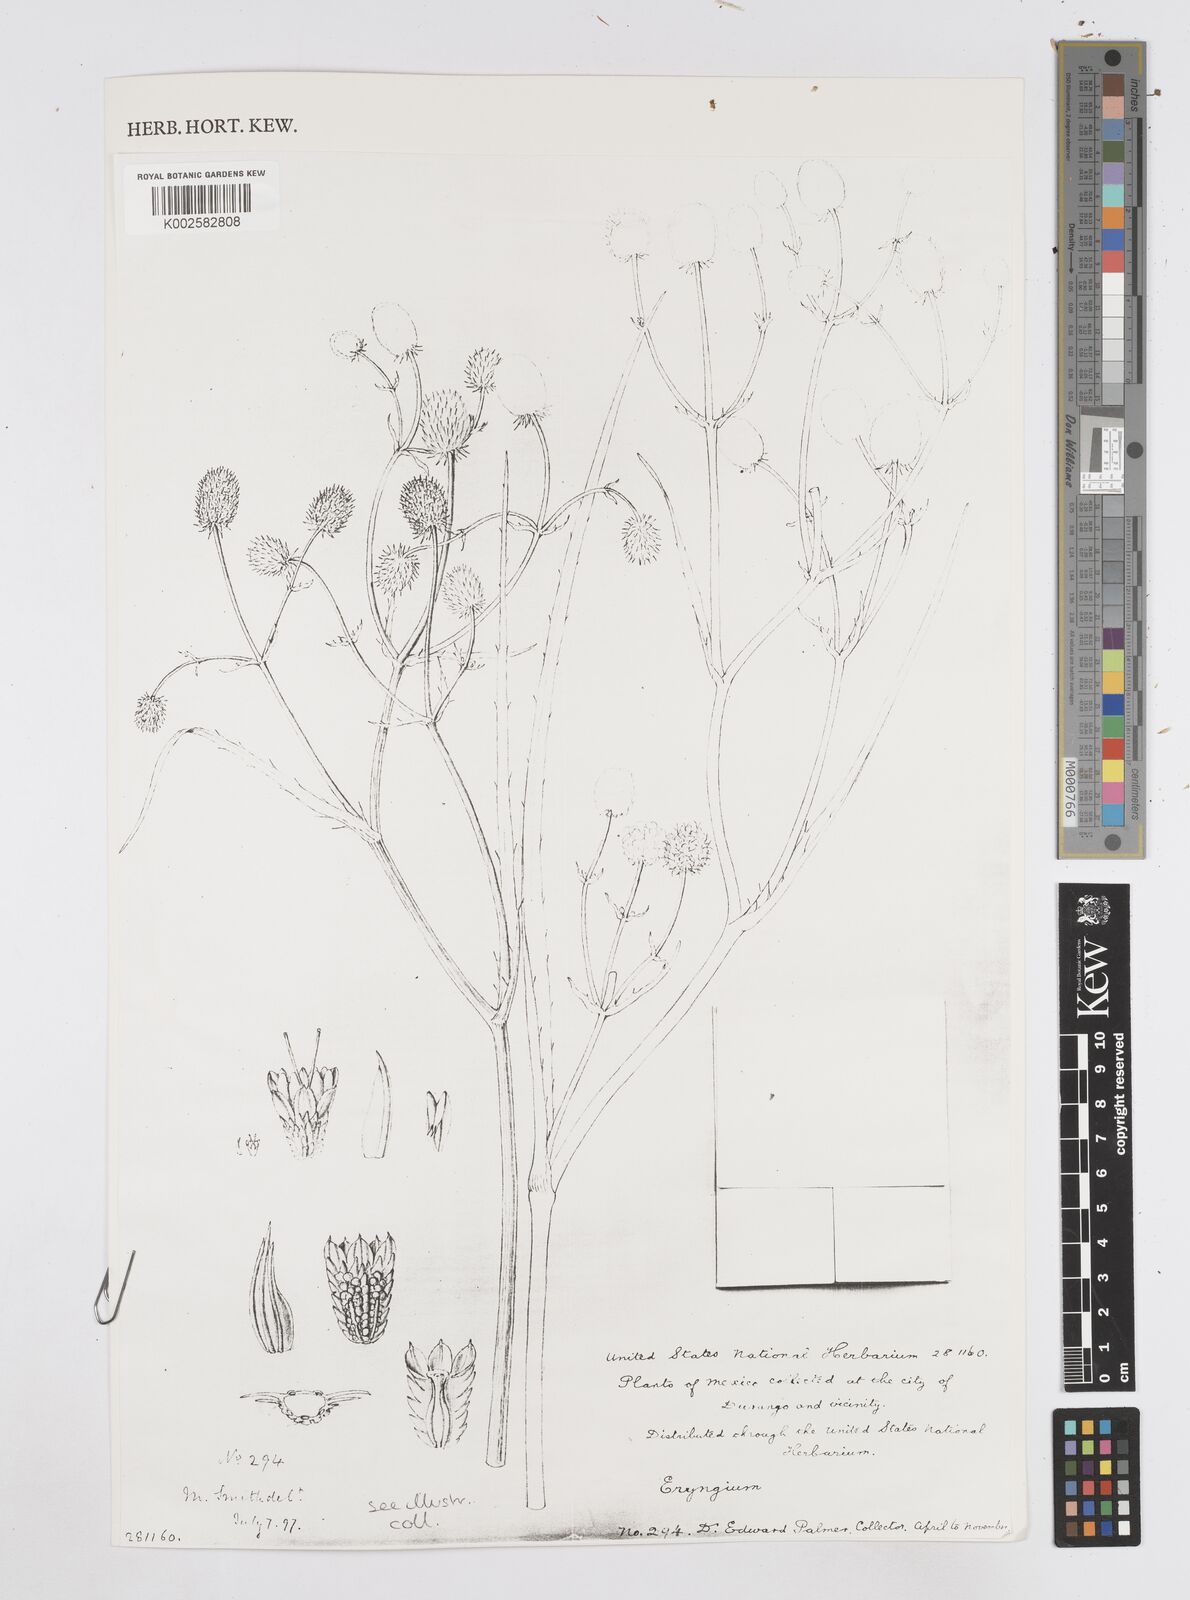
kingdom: Plantae
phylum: Tracheophyta
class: Magnoliopsida
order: Apiales
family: Apiaceae
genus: Eryngium
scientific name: Eryngium sparganophyllum
